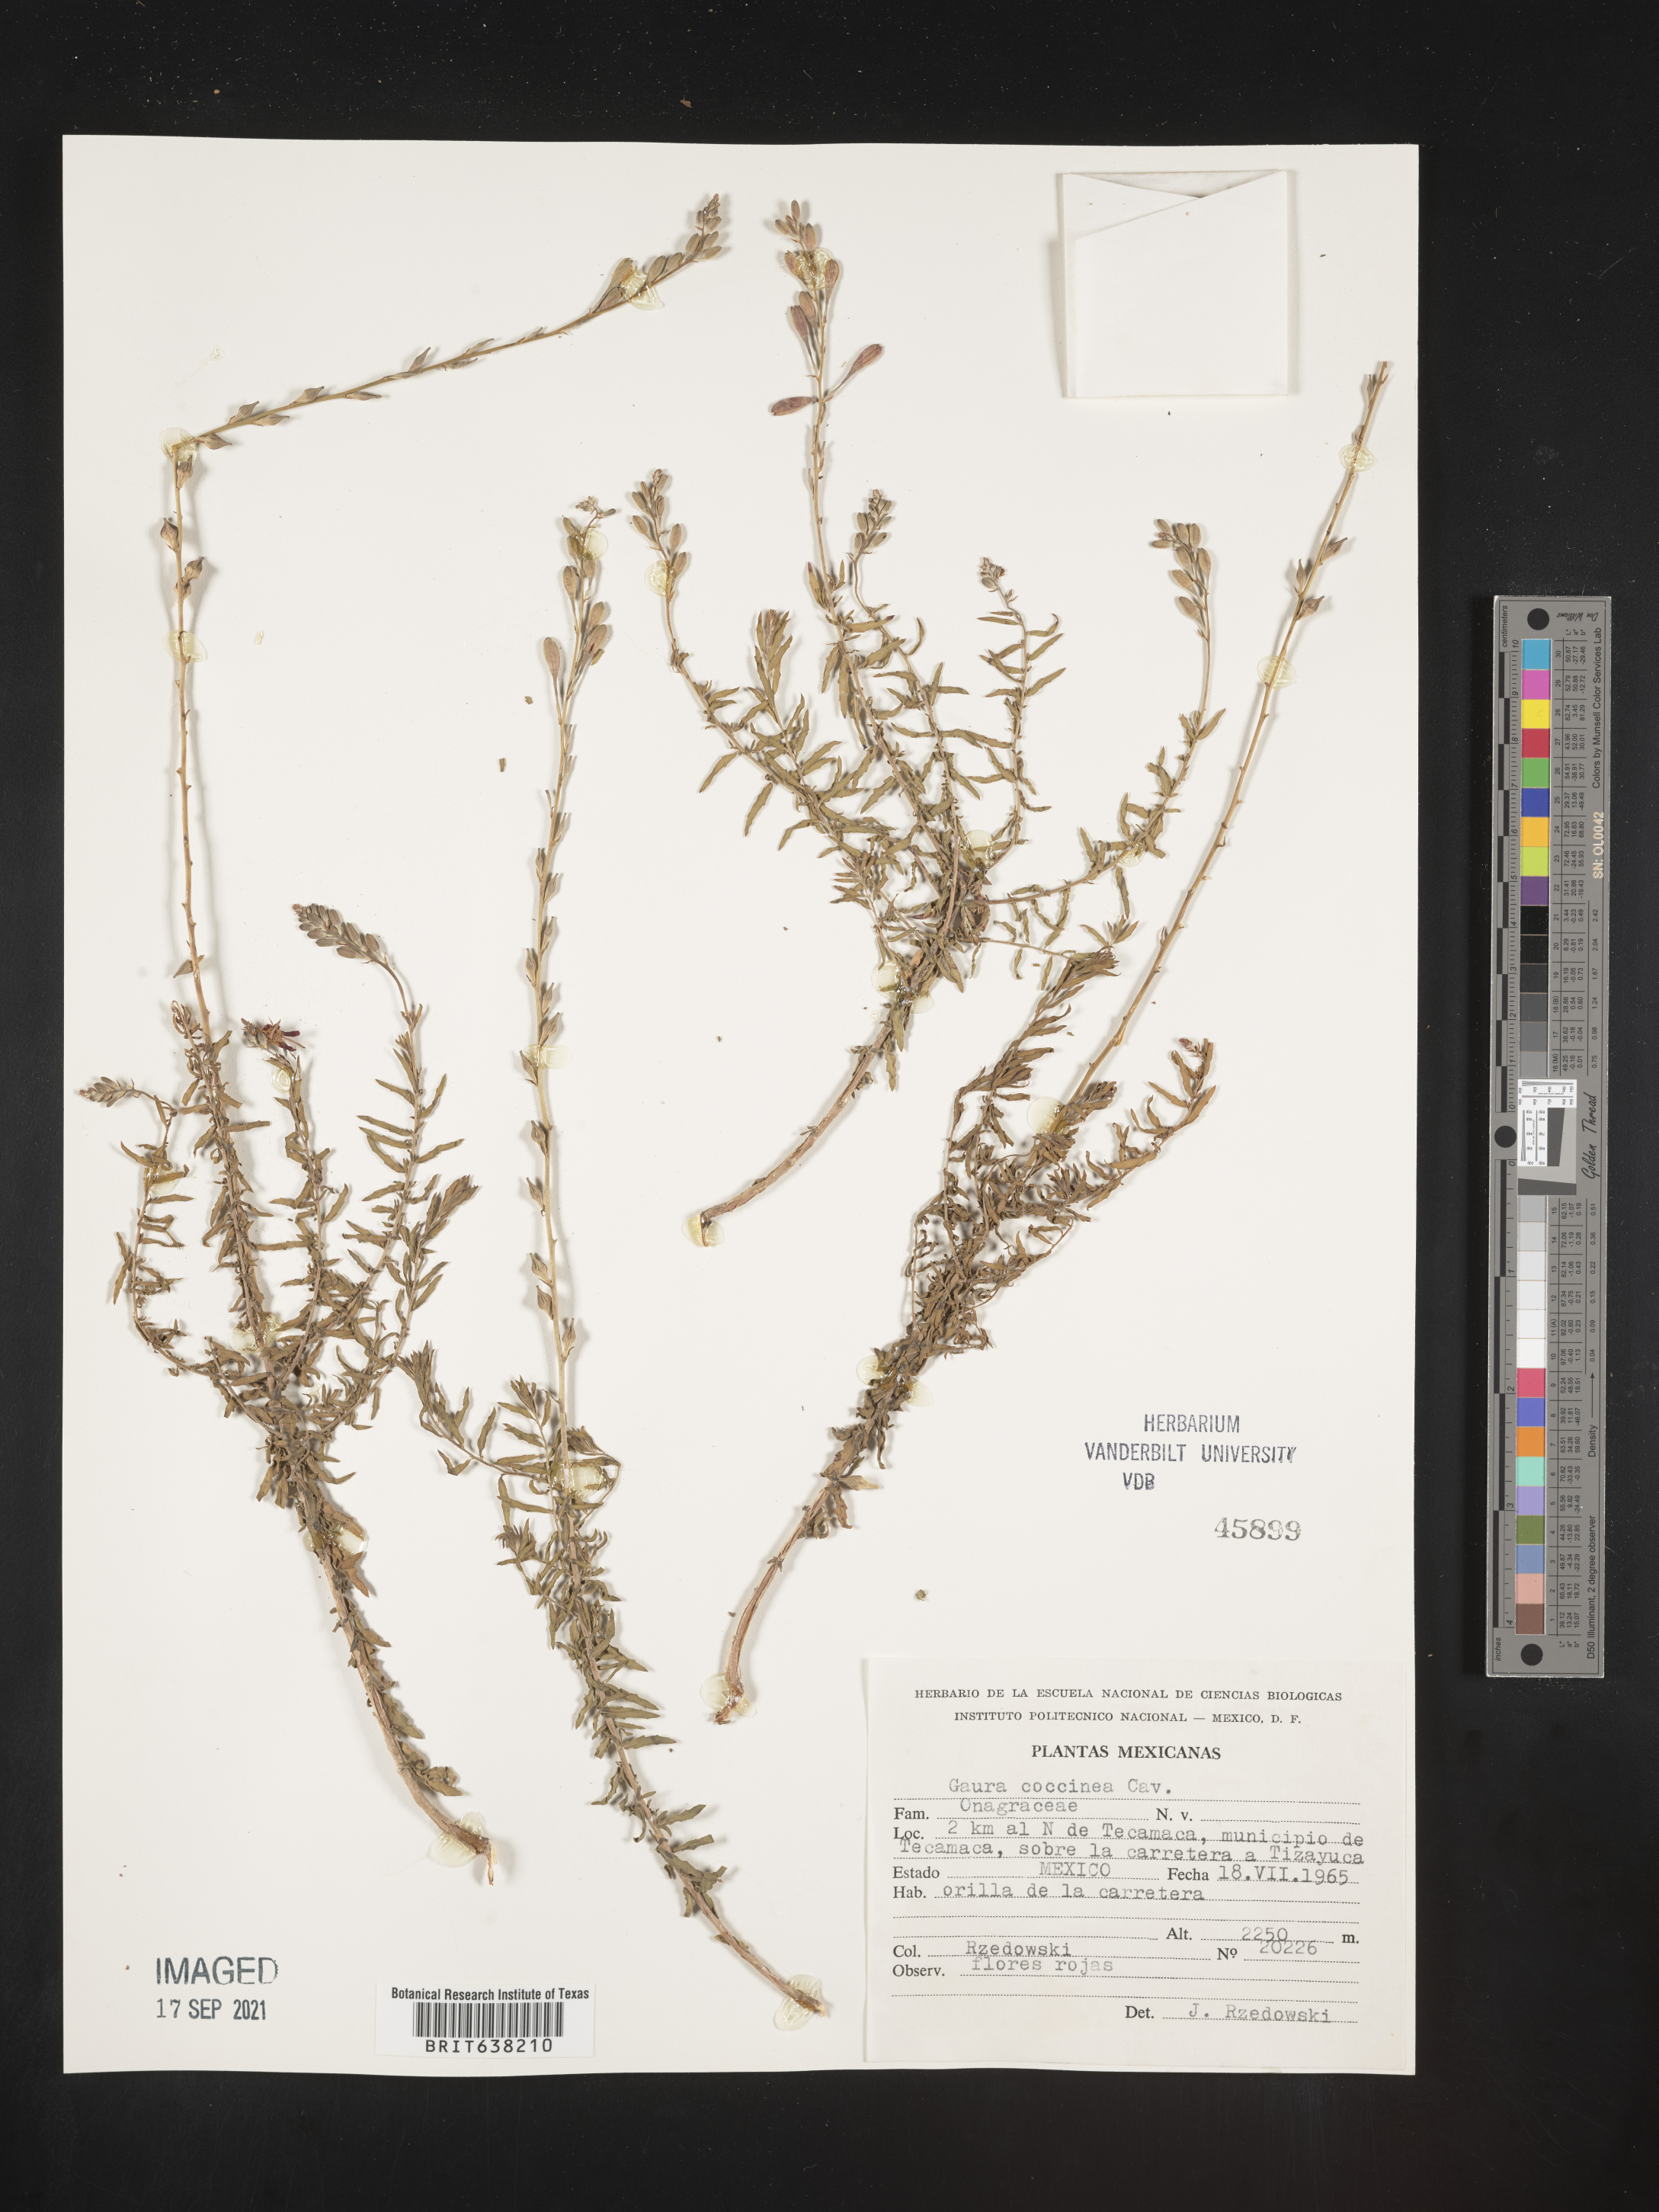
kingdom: Plantae
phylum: Tracheophyta
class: Magnoliopsida
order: Myrtales
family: Onagraceae
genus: Oenothera
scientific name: Oenothera
